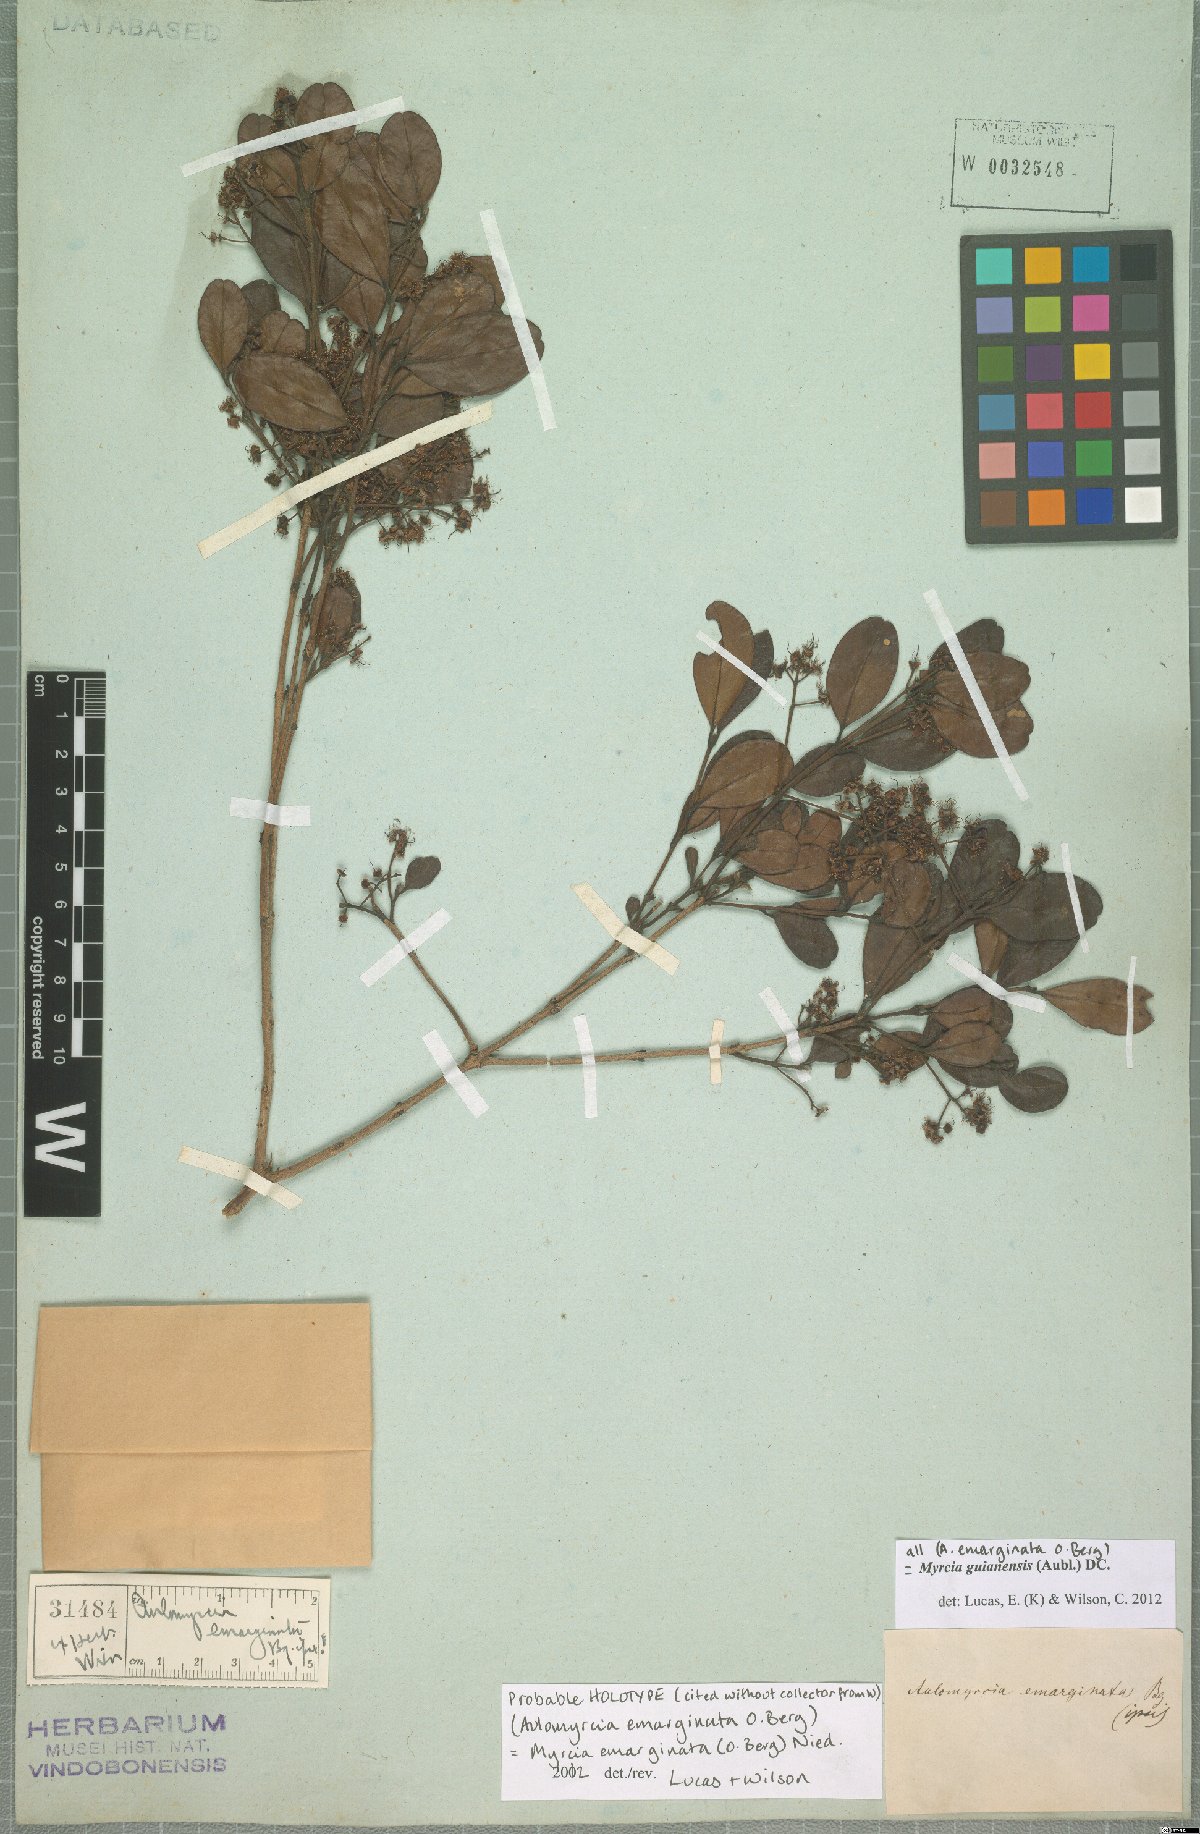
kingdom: Plantae
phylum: Tracheophyta
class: Magnoliopsida
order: Myrtales
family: Myrtaceae
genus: Myrcia
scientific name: Myrcia guianensis
